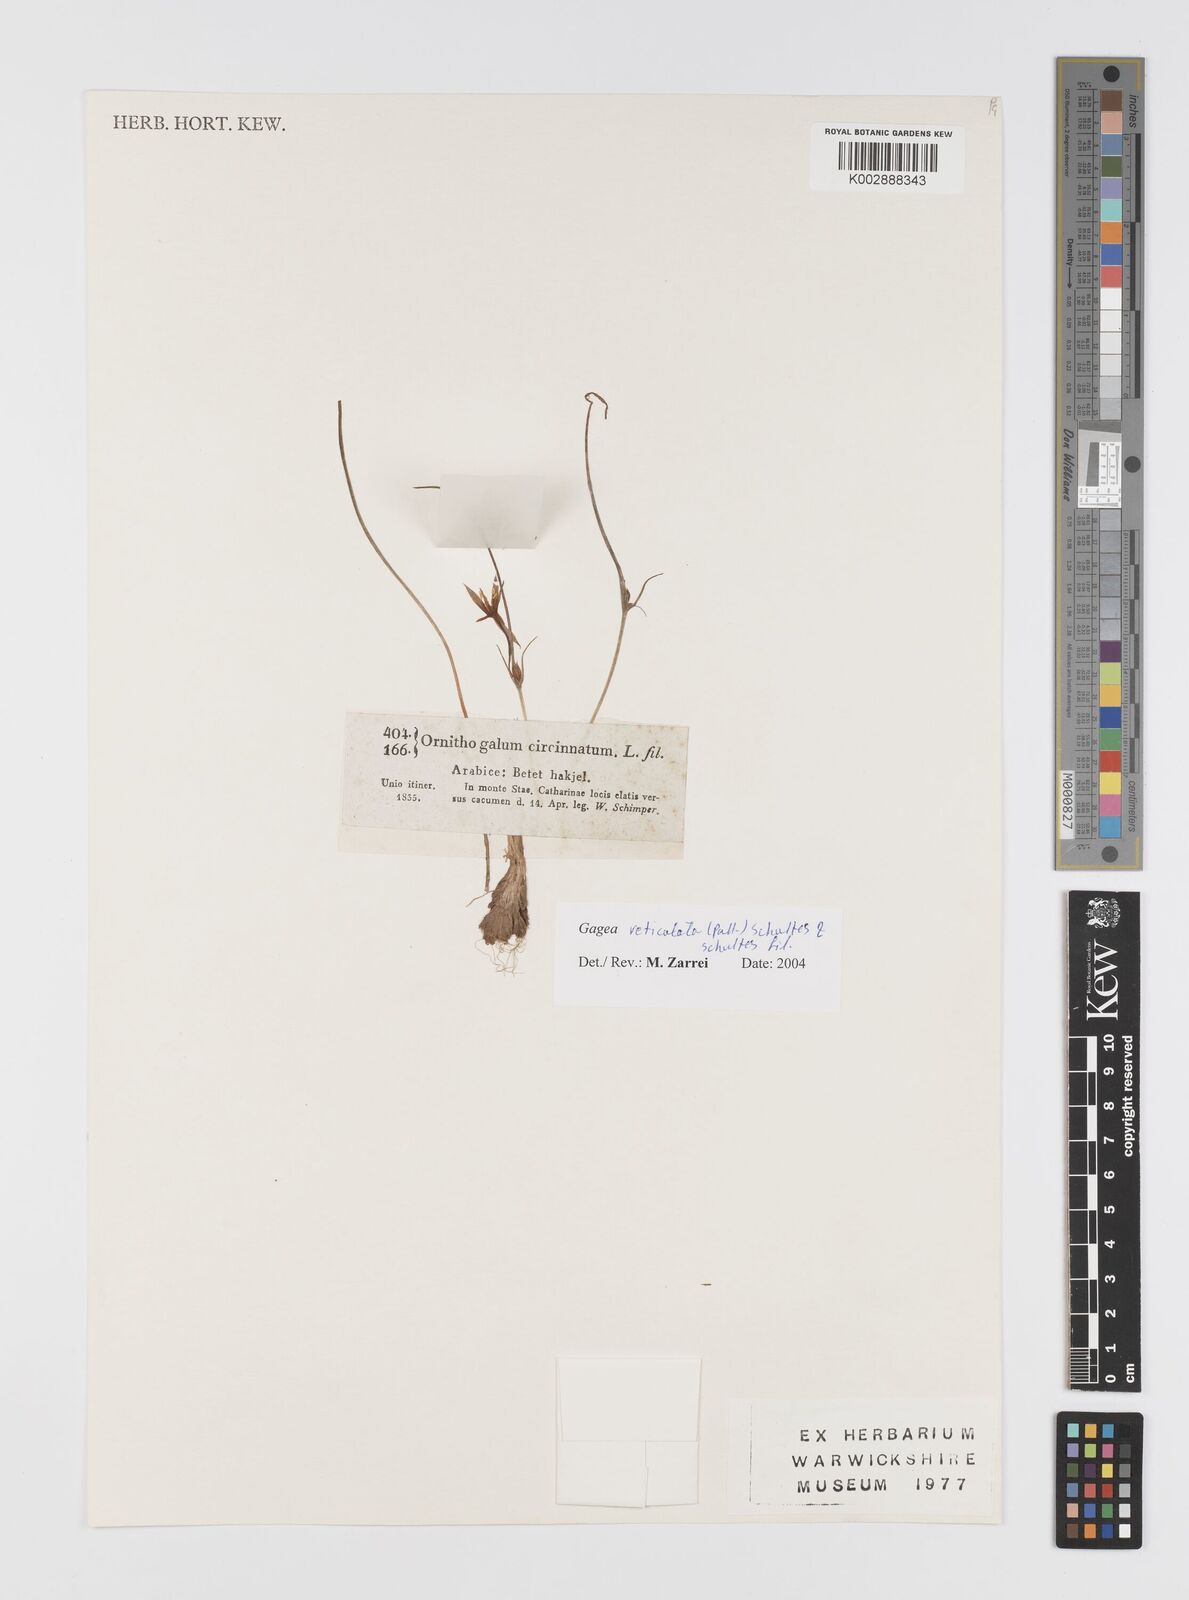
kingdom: Plantae
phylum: Tracheophyta
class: Liliopsida
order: Liliales
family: Liliaceae
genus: Gagea
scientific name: Gagea reticulata
